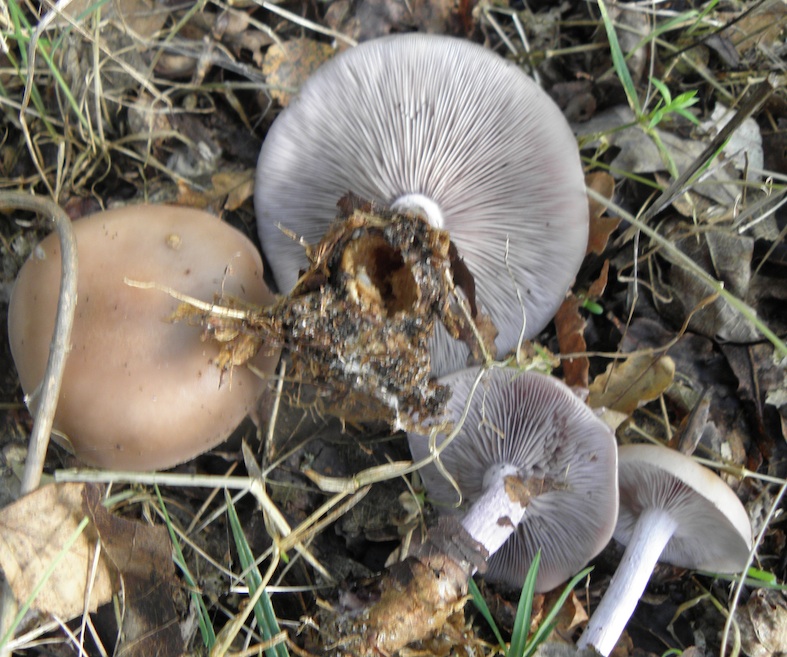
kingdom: Fungi
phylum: Basidiomycota
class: Agaricomycetes
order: Agaricales
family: Tricholomataceae
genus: Lepista
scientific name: Lepista nuda
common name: violet hekseringshat
